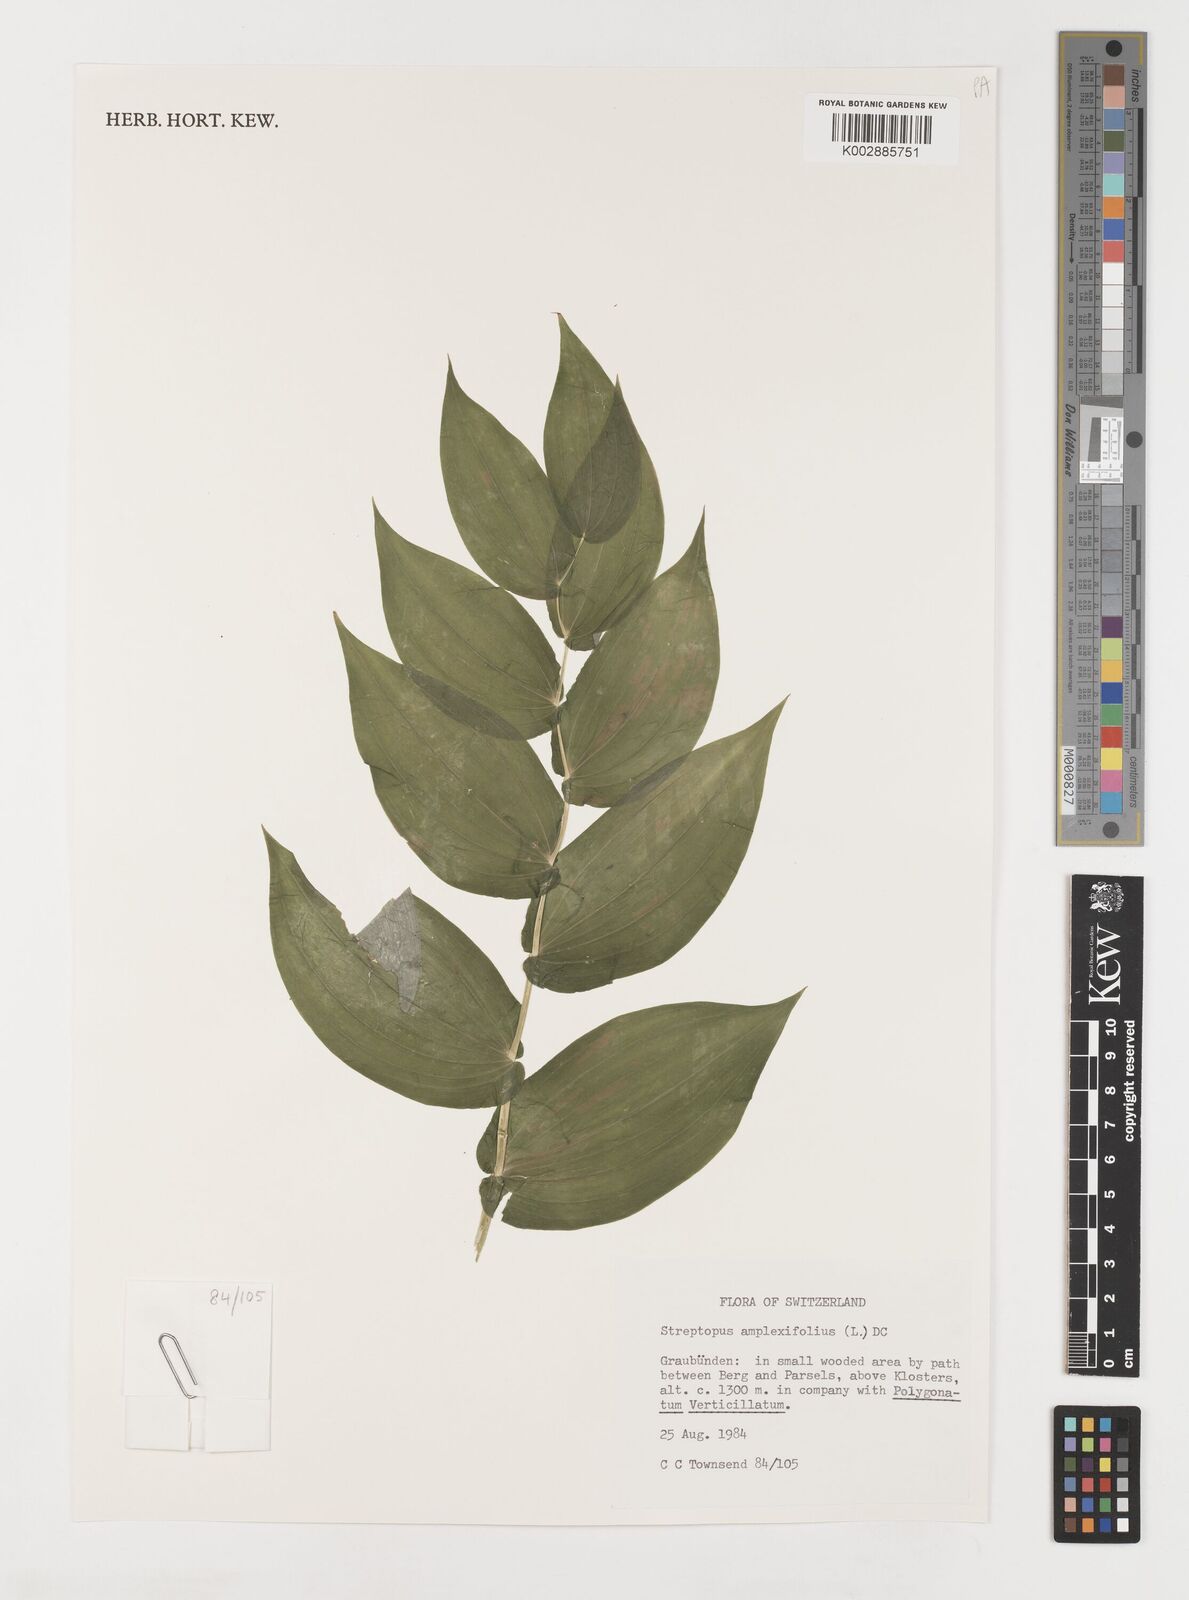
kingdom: Plantae
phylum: Tracheophyta
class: Liliopsida
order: Liliales
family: Liliaceae
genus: Streptopus
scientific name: Streptopus amplexifolius
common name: Clasp twisted stalk
